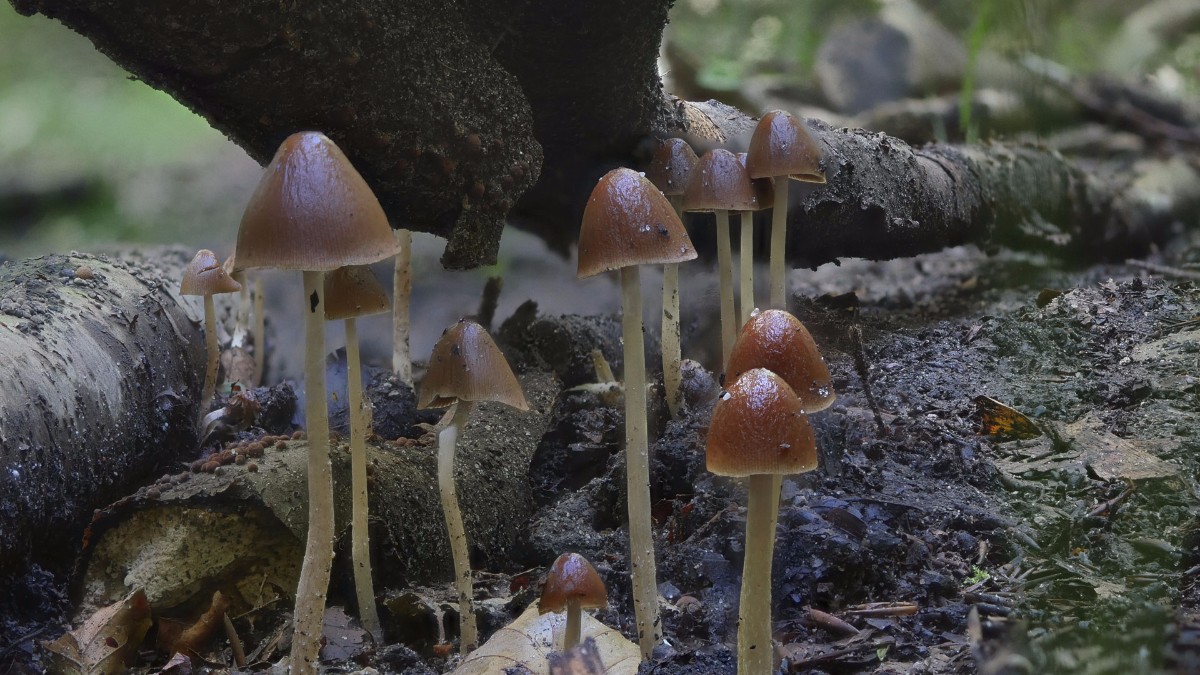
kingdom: Fungi
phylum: Basidiomycota
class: Agaricomycetes
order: Agaricales
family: Psathyrellaceae
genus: Parasola
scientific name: Parasola conopilea
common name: kegle-hjulhat
